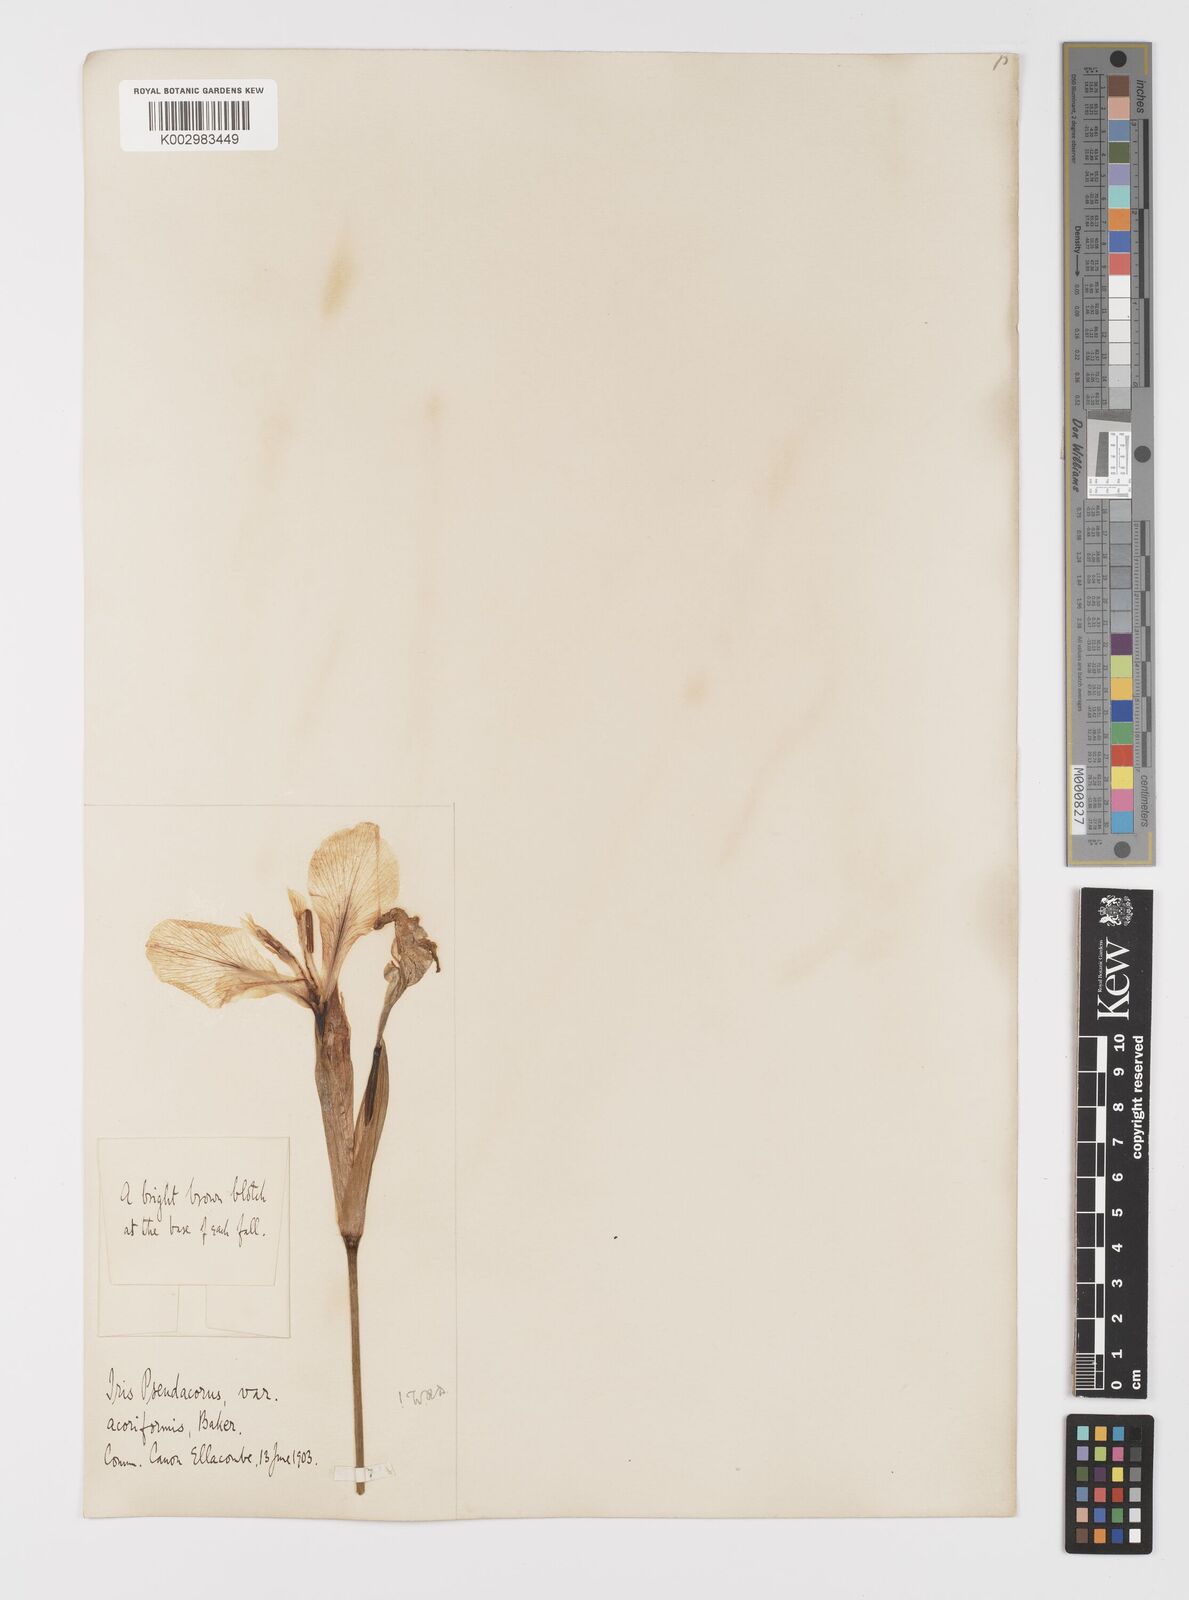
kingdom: Plantae
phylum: Tracheophyta
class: Liliopsida
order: Asparagales
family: Iridaceae
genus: Iris
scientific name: Iris pseudacorus
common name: Yellow flag
